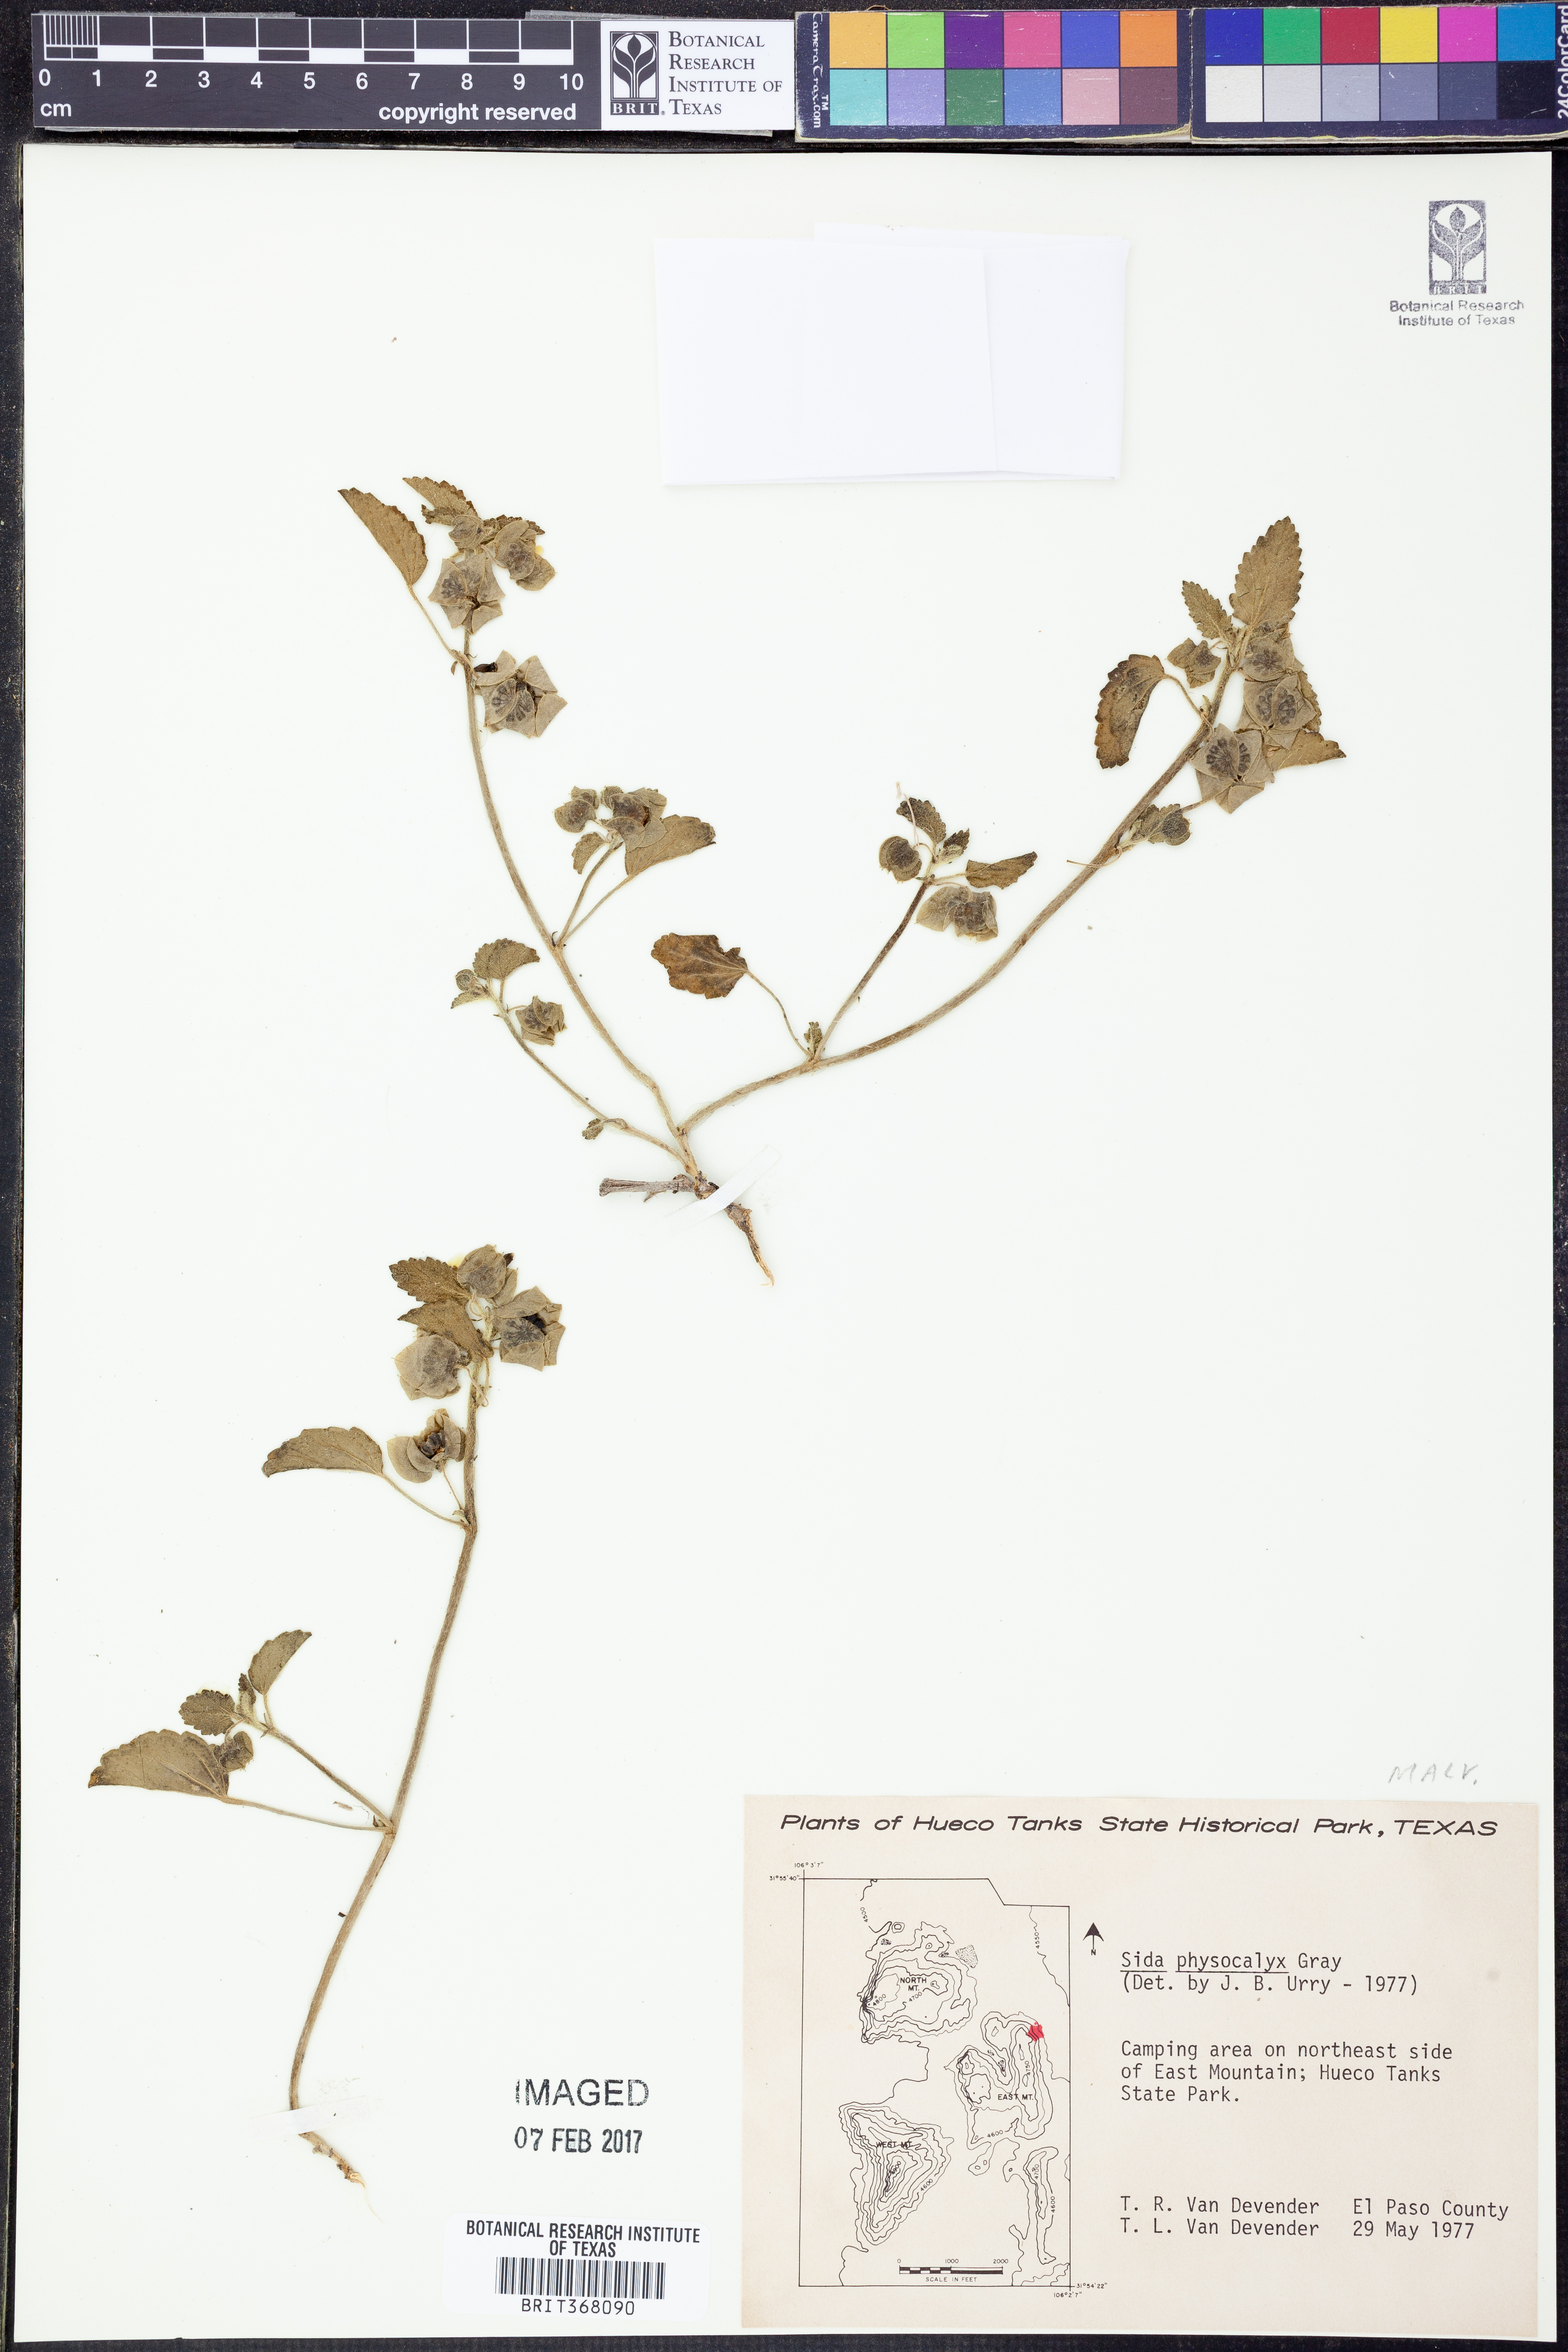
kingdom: Plantae
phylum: Tracheophyta
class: Magnoliopsida
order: Malvales
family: Malvaceae
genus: Rhynchosida
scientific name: Rhynchosida physocalyx
